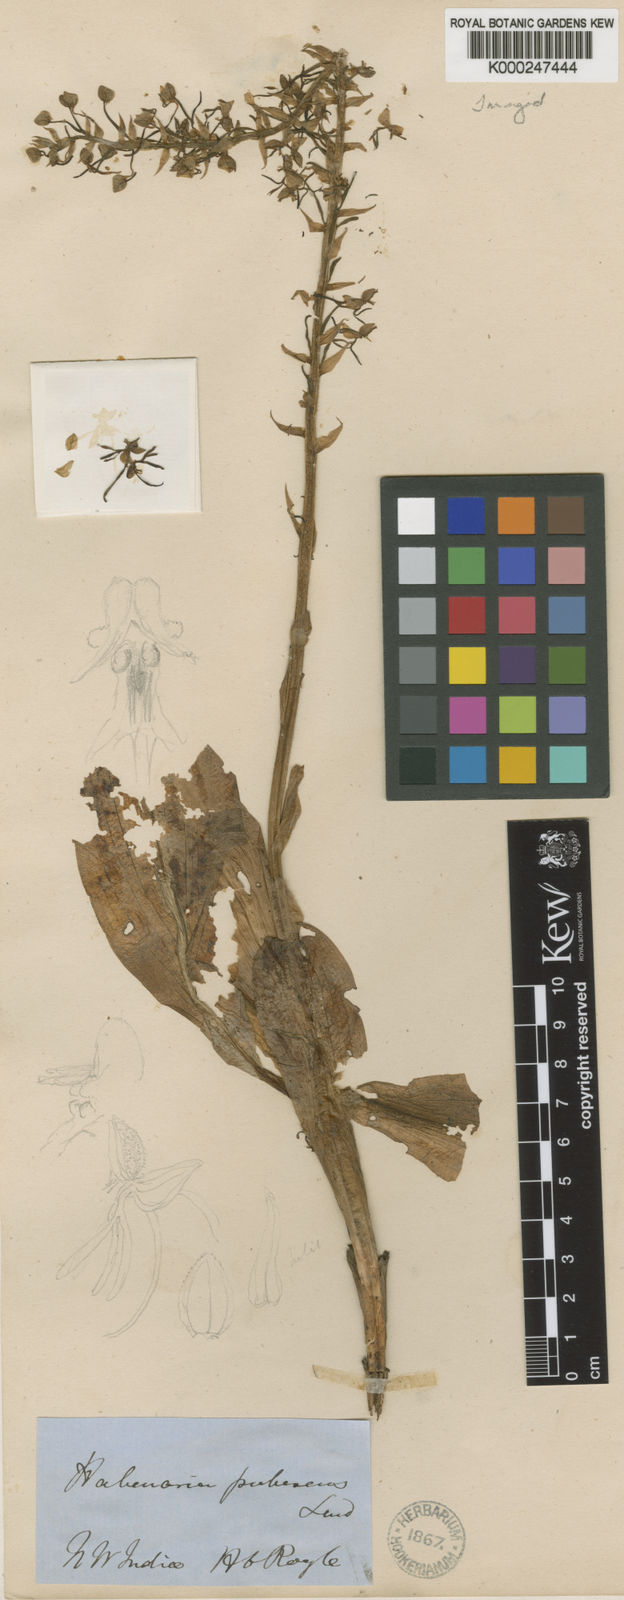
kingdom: Plantae
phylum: Tracheophyta
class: Liliopsida
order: Asparagales
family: Orchidaceae
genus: Habenaria
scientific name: Habenaria pubescens
